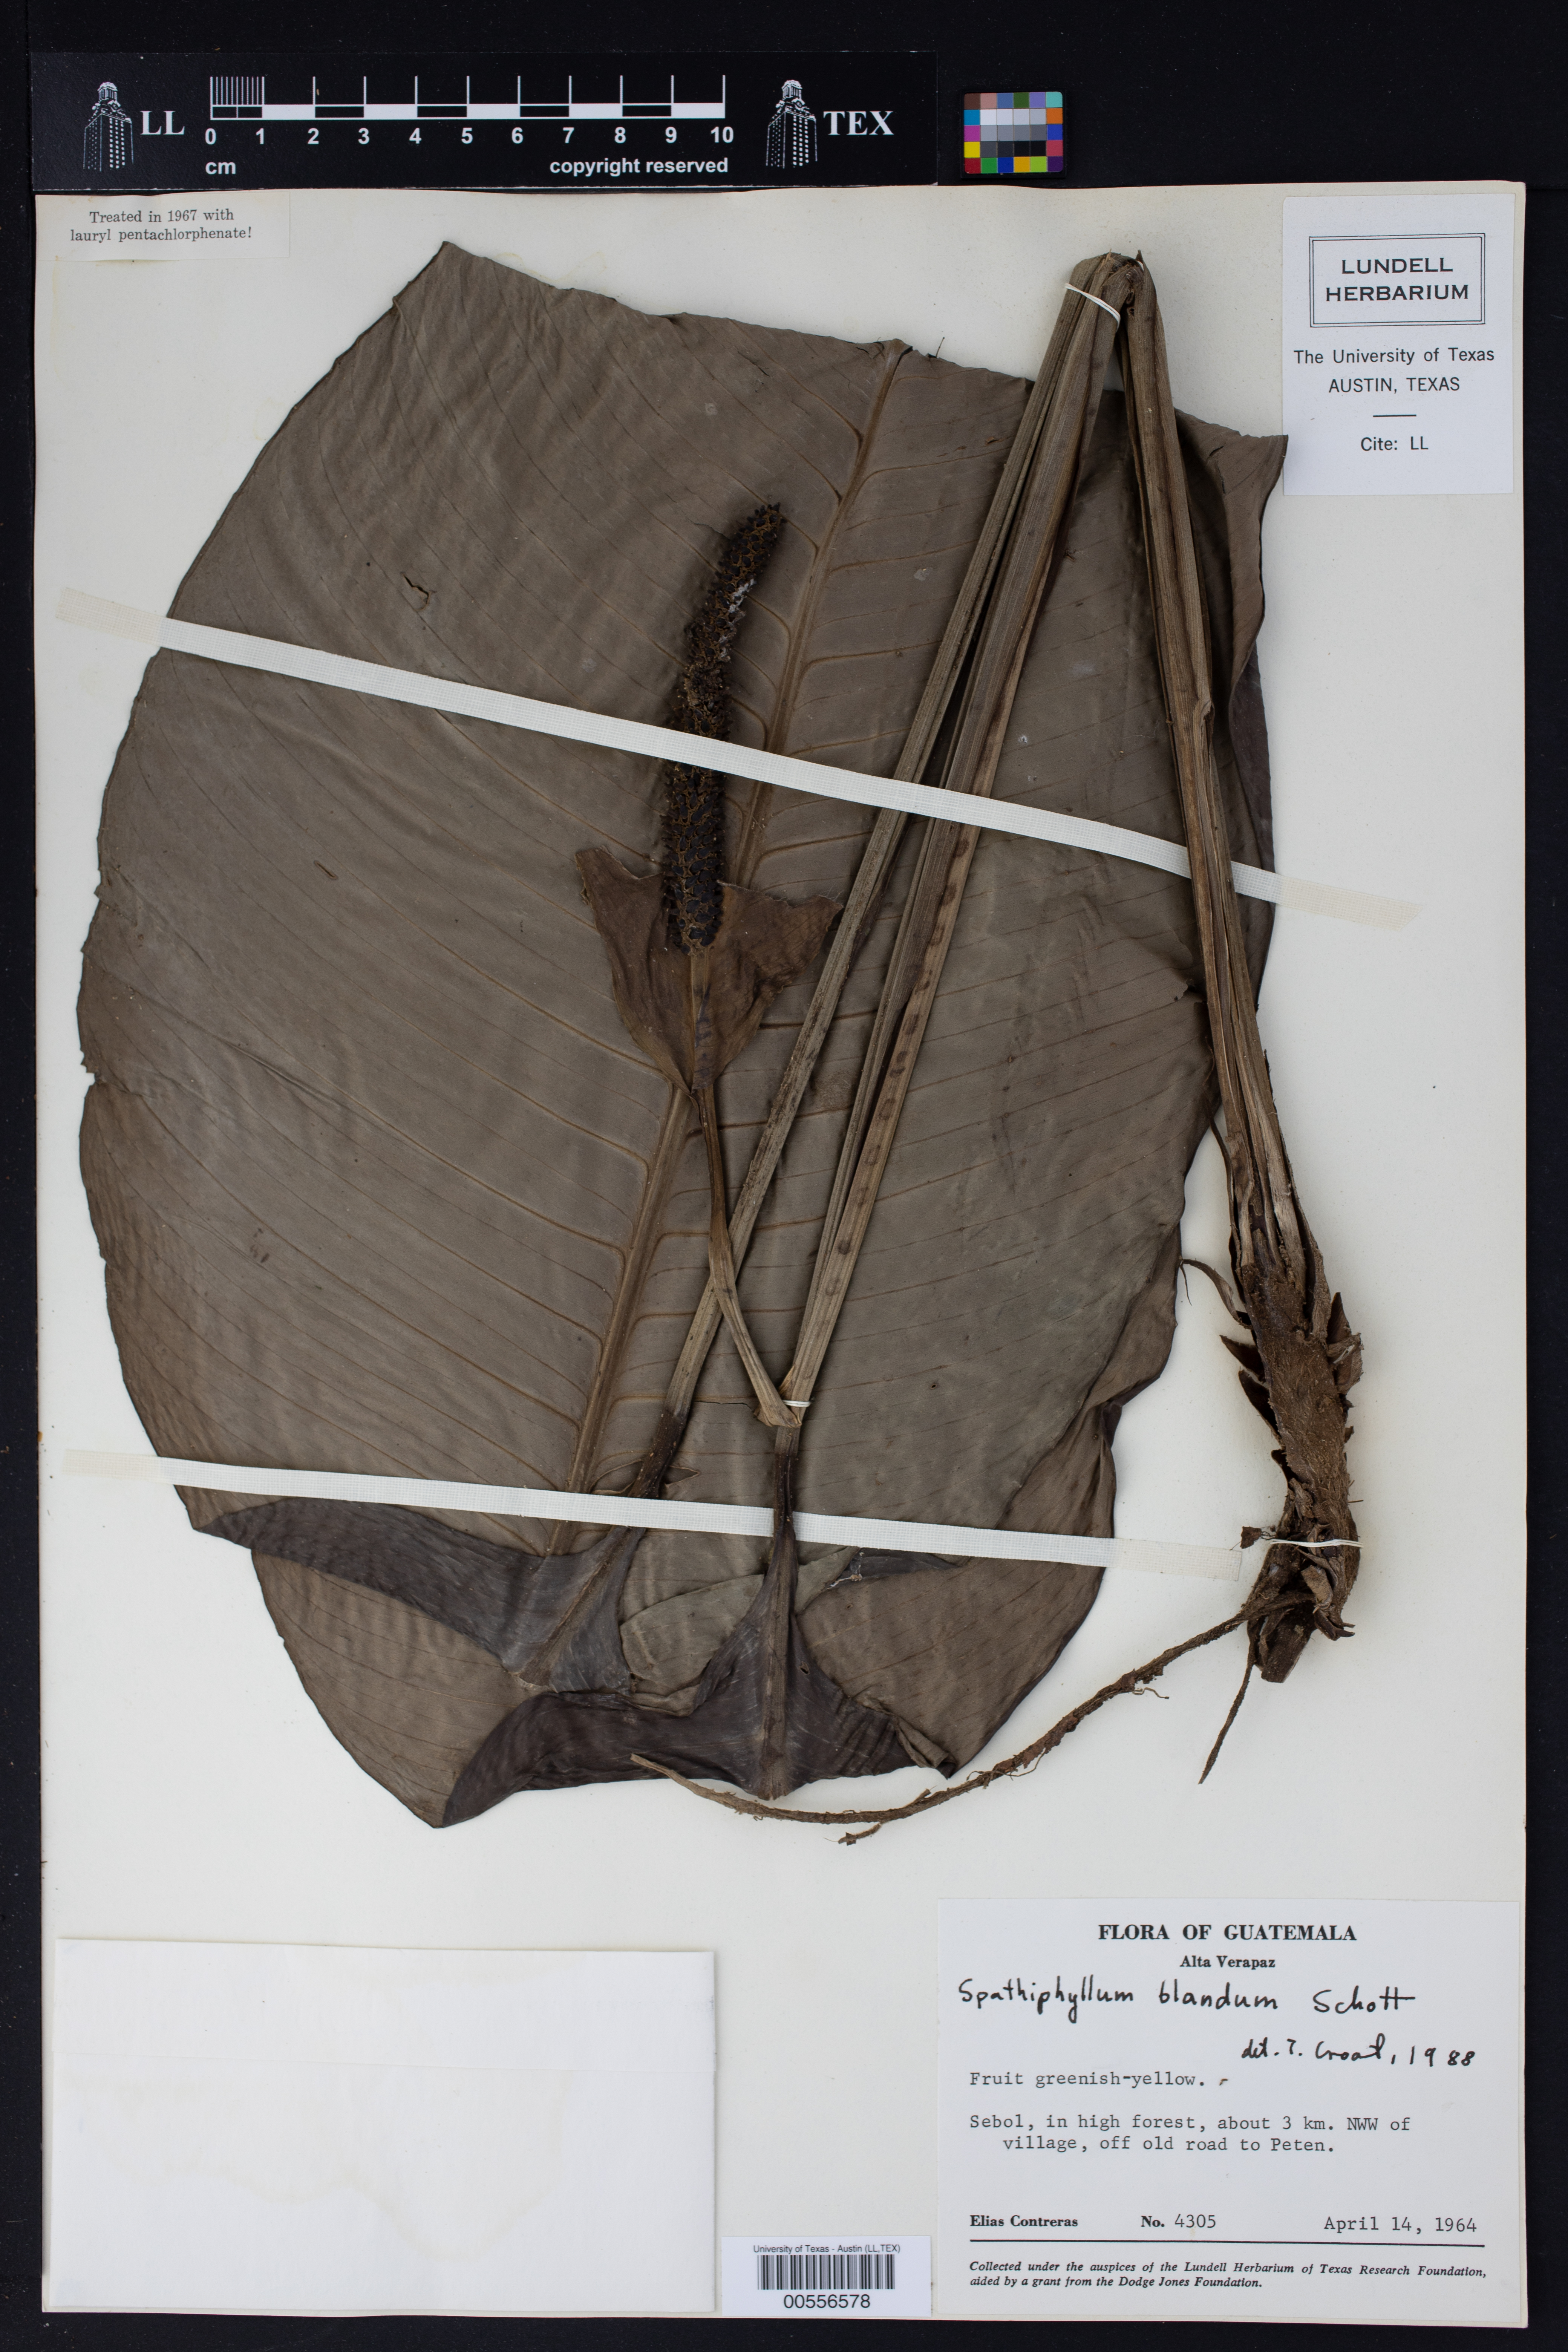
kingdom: Plantae
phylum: Tracheophyta
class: Liliopsida
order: Alismatales
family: Araceae
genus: Spathiphyllum
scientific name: Spathiphyllum blandum
